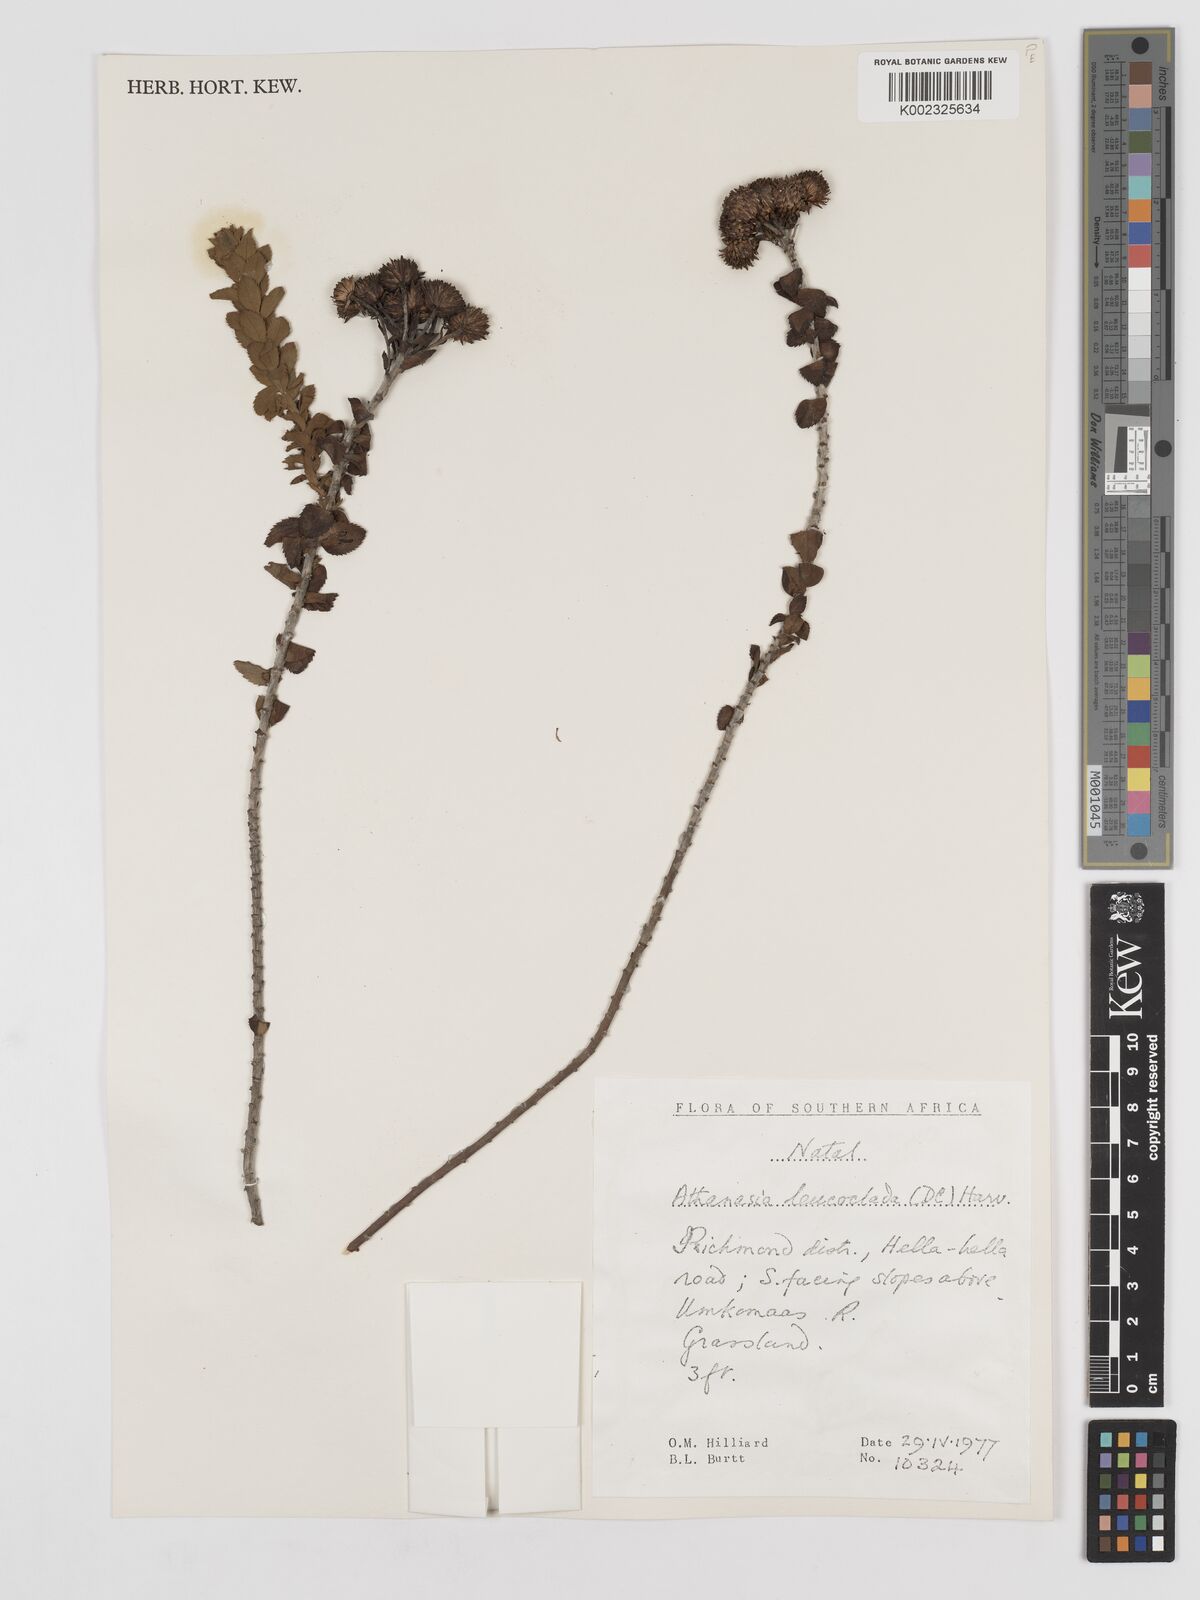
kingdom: Plantae
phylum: Tracheophyta
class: Magnoliopsida
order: Asterales
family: Asteraceae
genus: Inulanthera
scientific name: Inulanthera leucoclada
